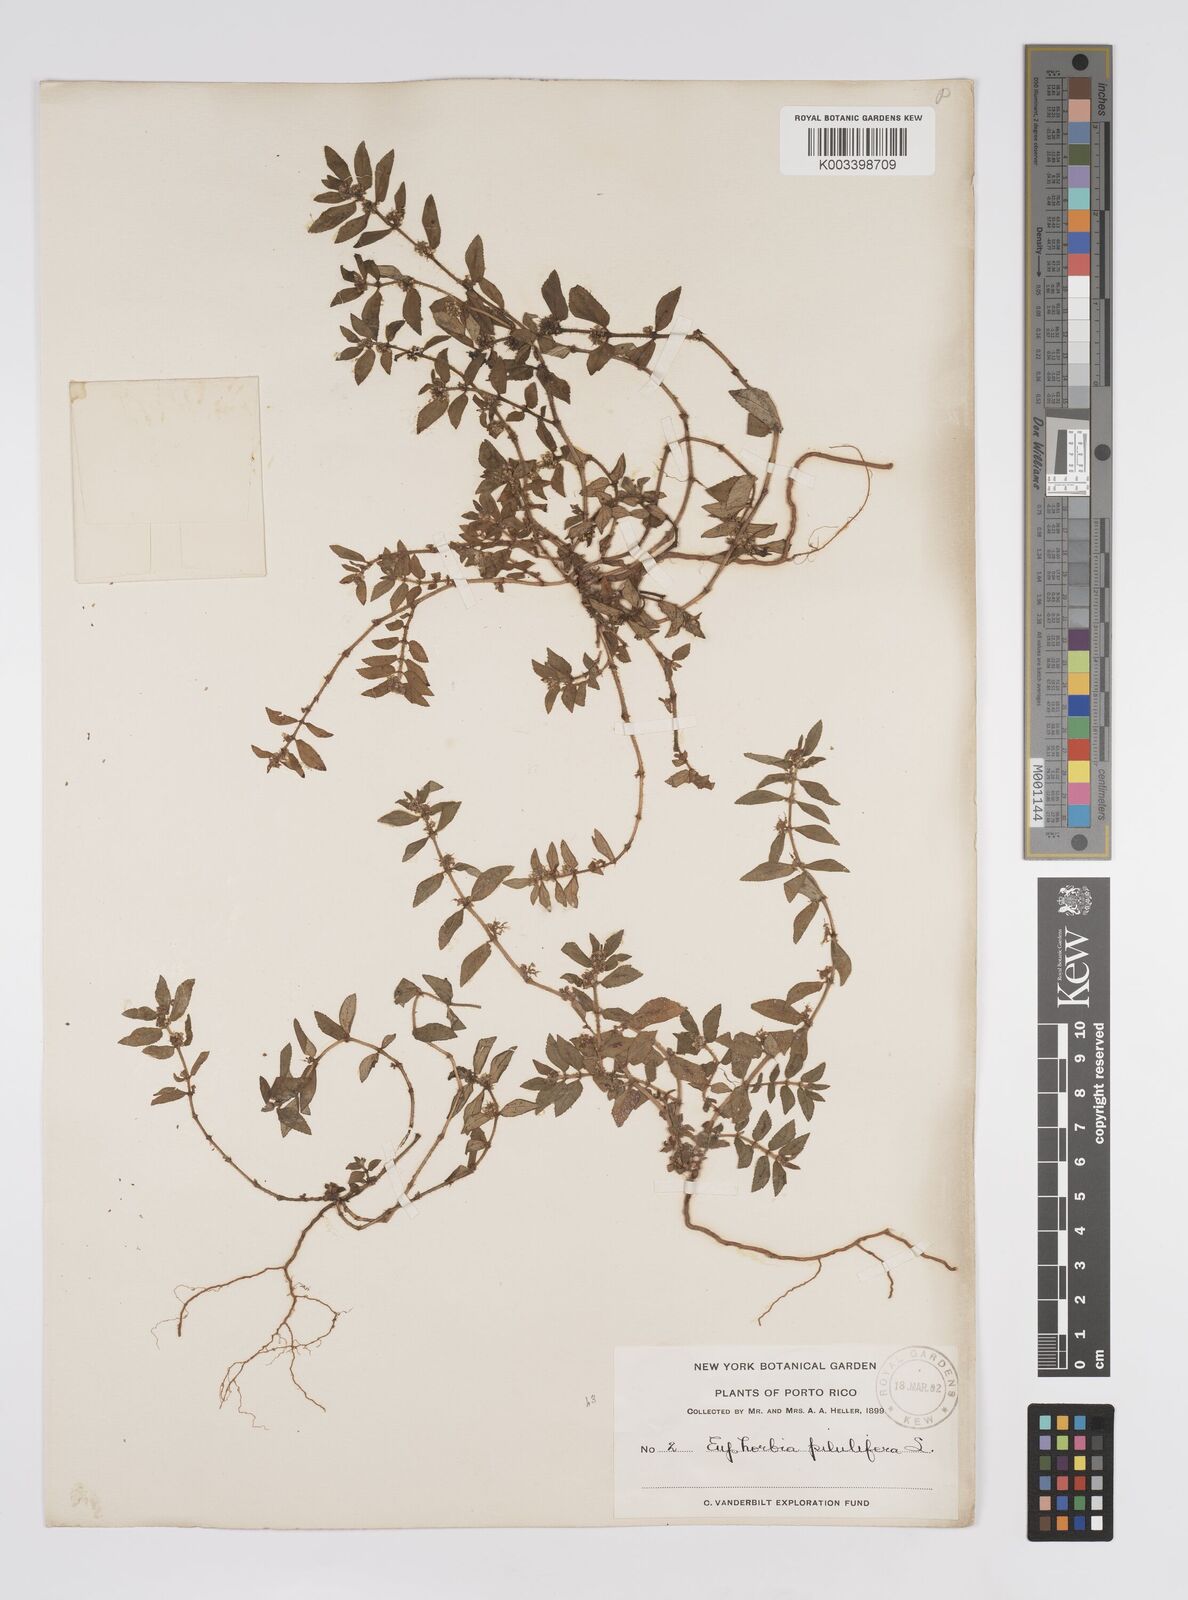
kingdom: Plantae
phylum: Tracheophyta
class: Magnoliopsida
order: Malpighiales
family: Euphorbiaceae
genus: Euphorbia
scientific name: Euphorbia hirta
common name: Pillpod sandmat
